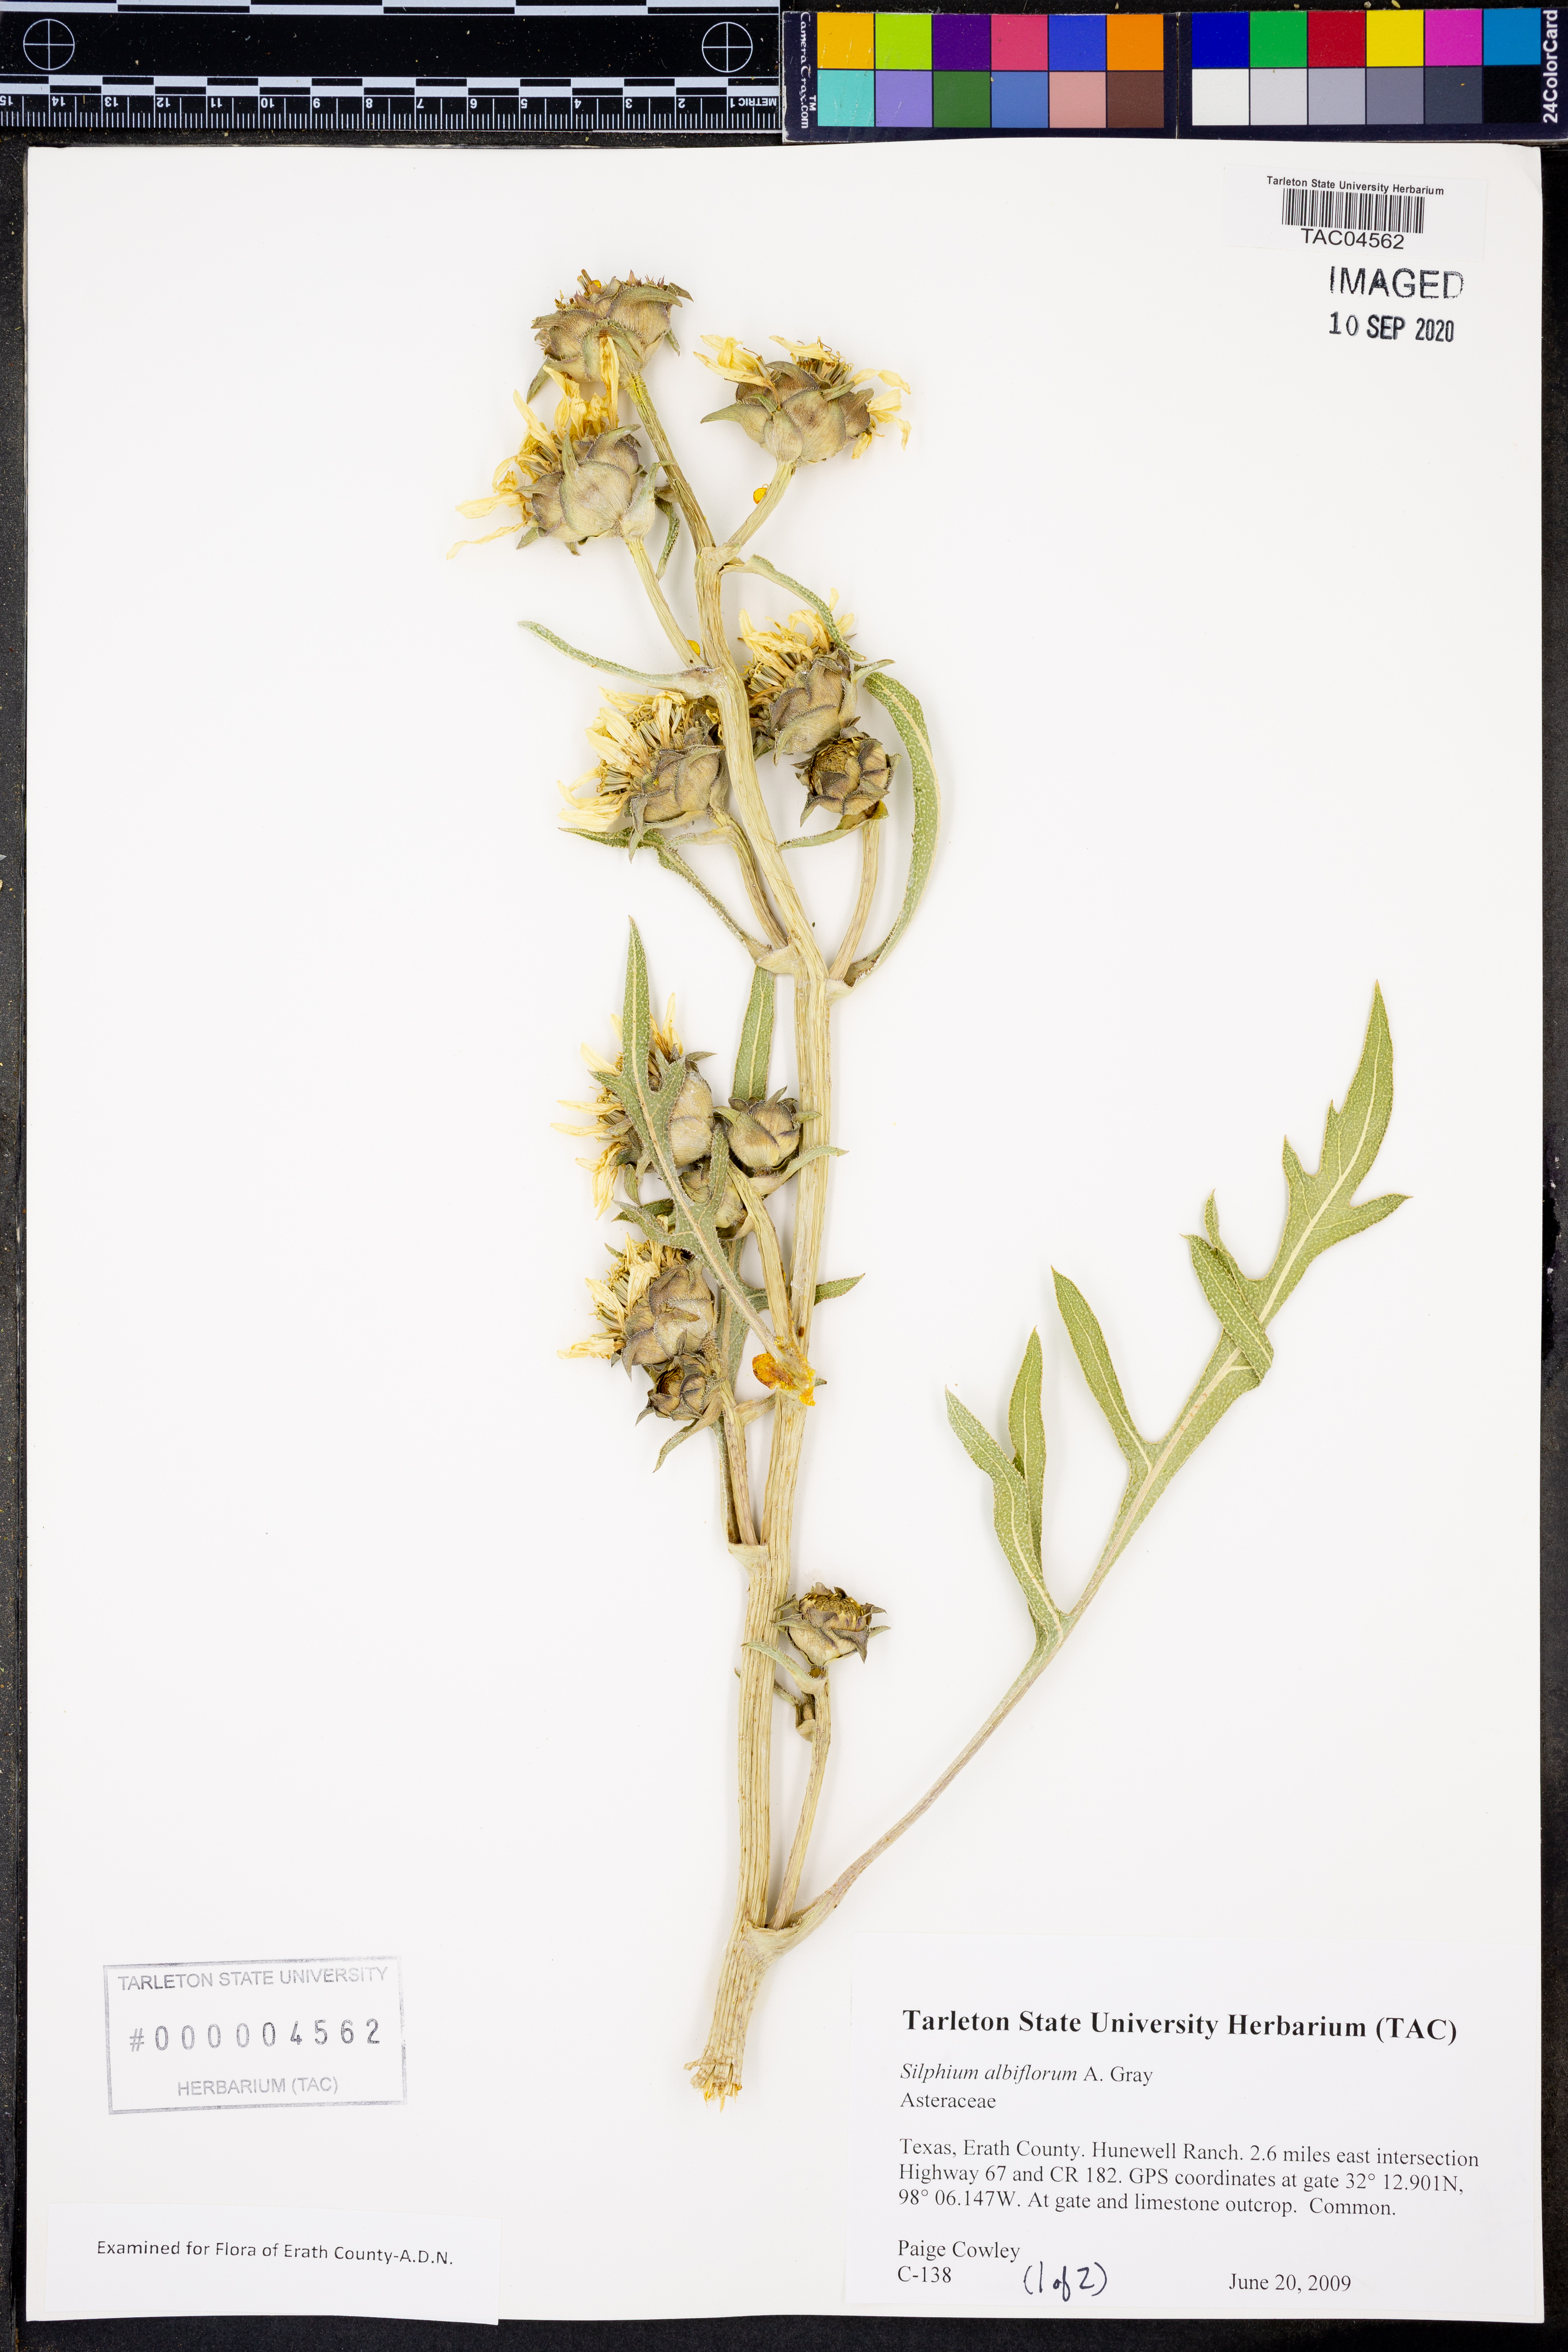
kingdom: Plantae
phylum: Tracheophyta
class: Magnoliopsida
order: Asterales
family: Asteraceae
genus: Silphium
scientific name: Silphium albiflorum
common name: White rosinweed
